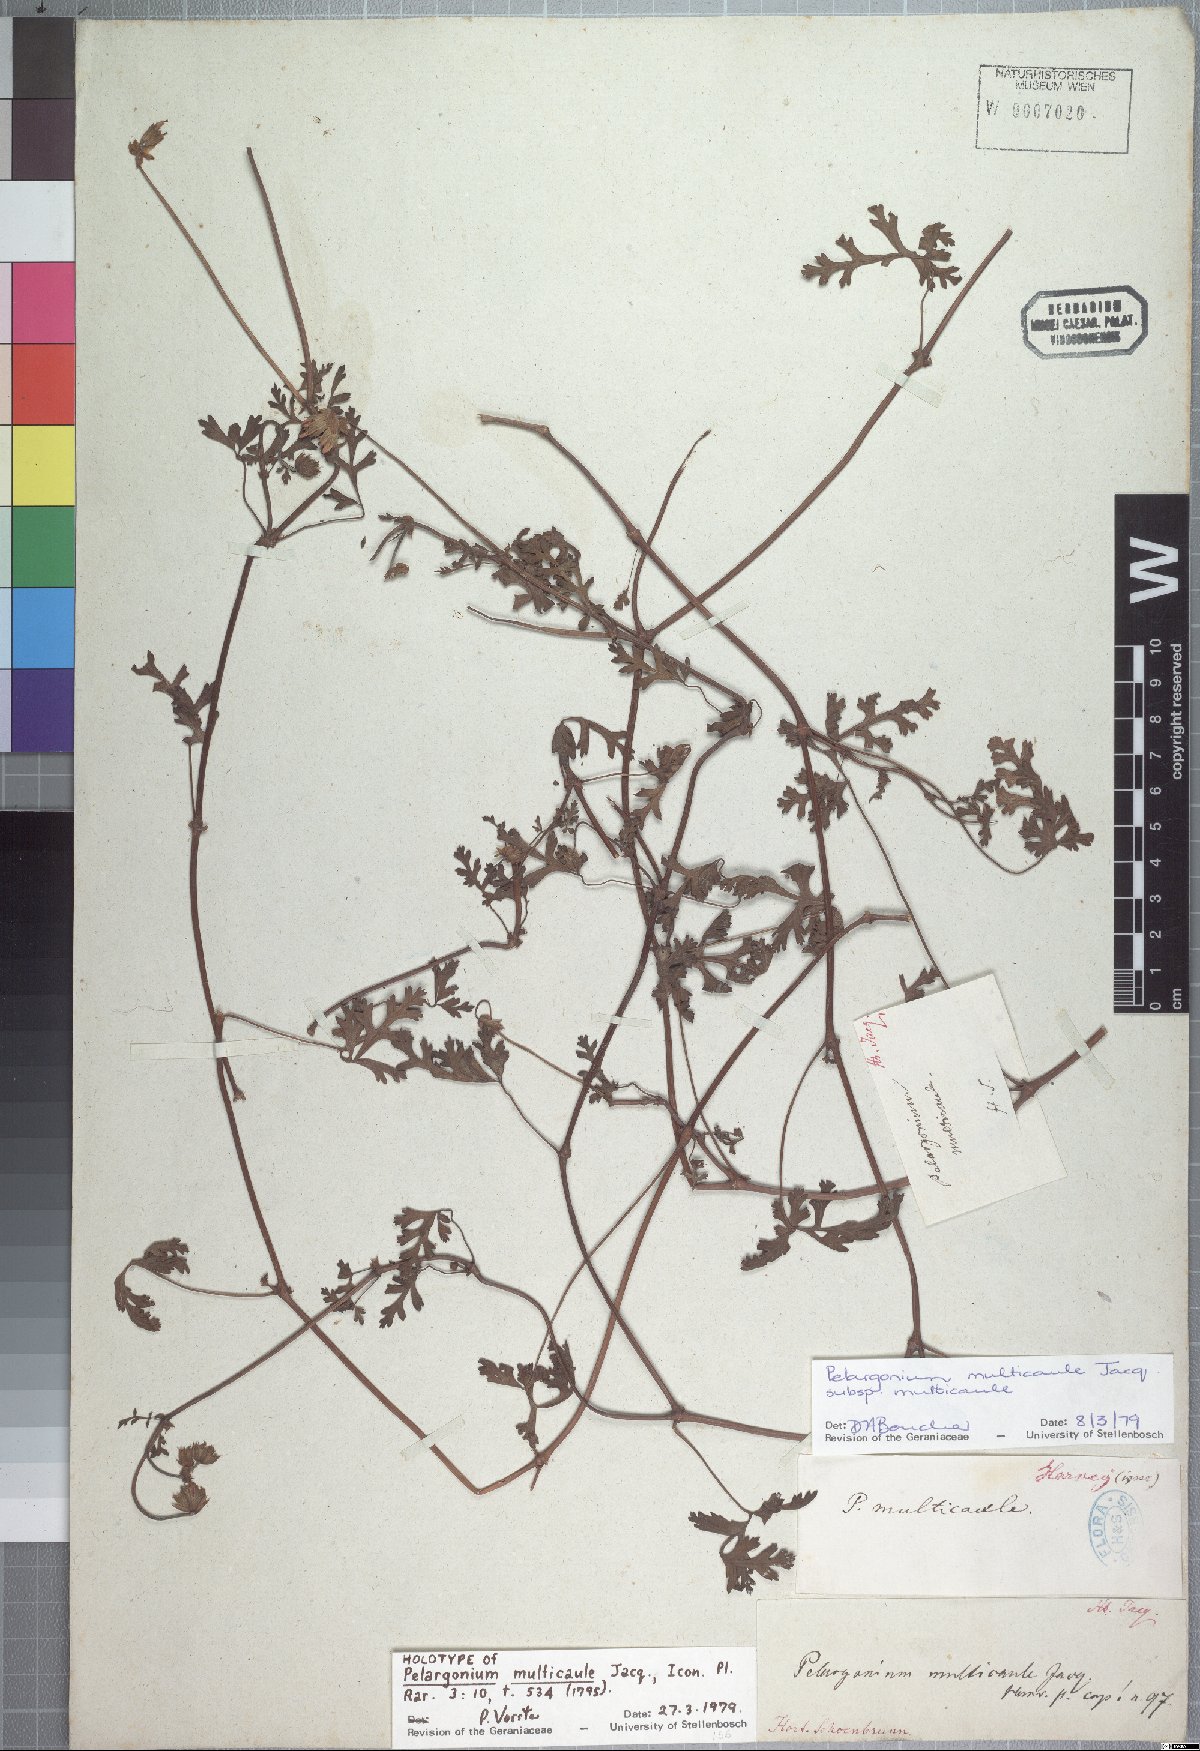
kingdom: Plantae
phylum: Tracheophyta
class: Magnoliopsida
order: Geraniales
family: Geraniaceae
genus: Pelargonium
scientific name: Pelargonium multicaule
